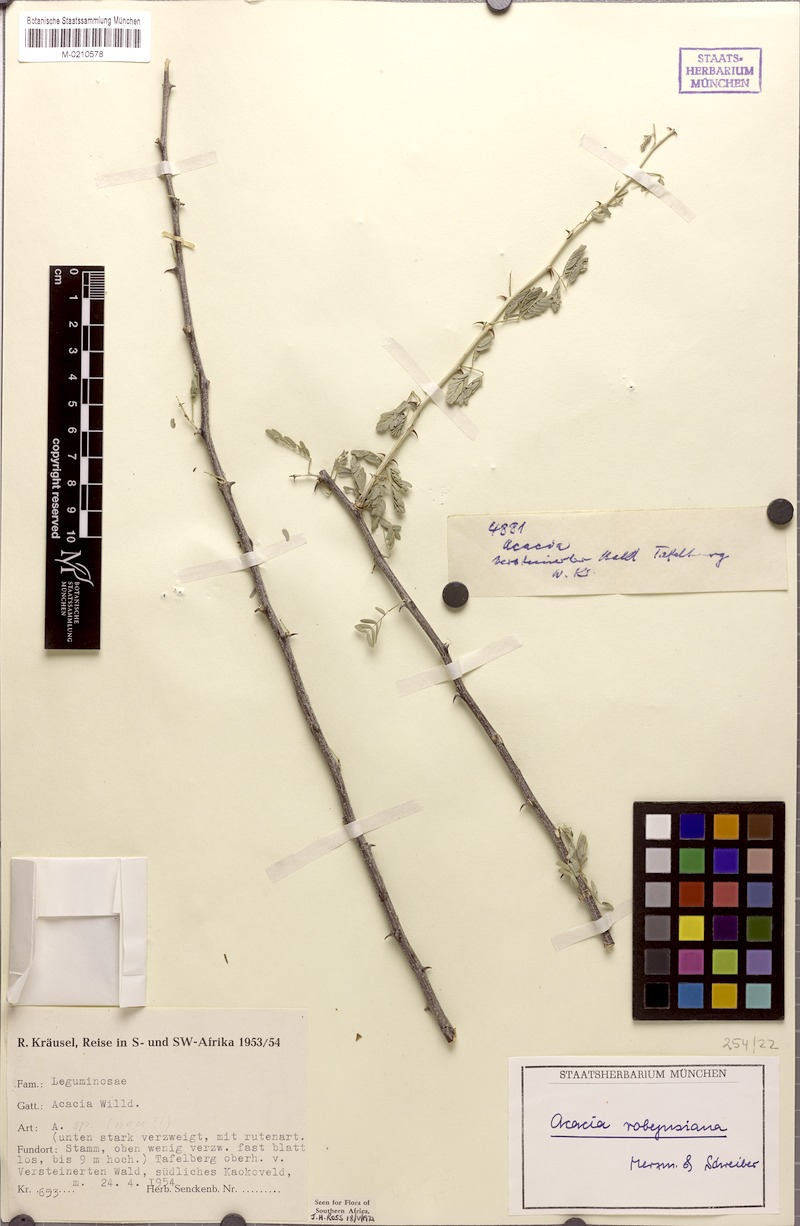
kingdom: Plantae
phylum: Tracheophyta
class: Magnoliopsida
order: Fabales
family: Fabaceae
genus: Senegalia
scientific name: Senegalia robynsiana
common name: Whip stick acacia
